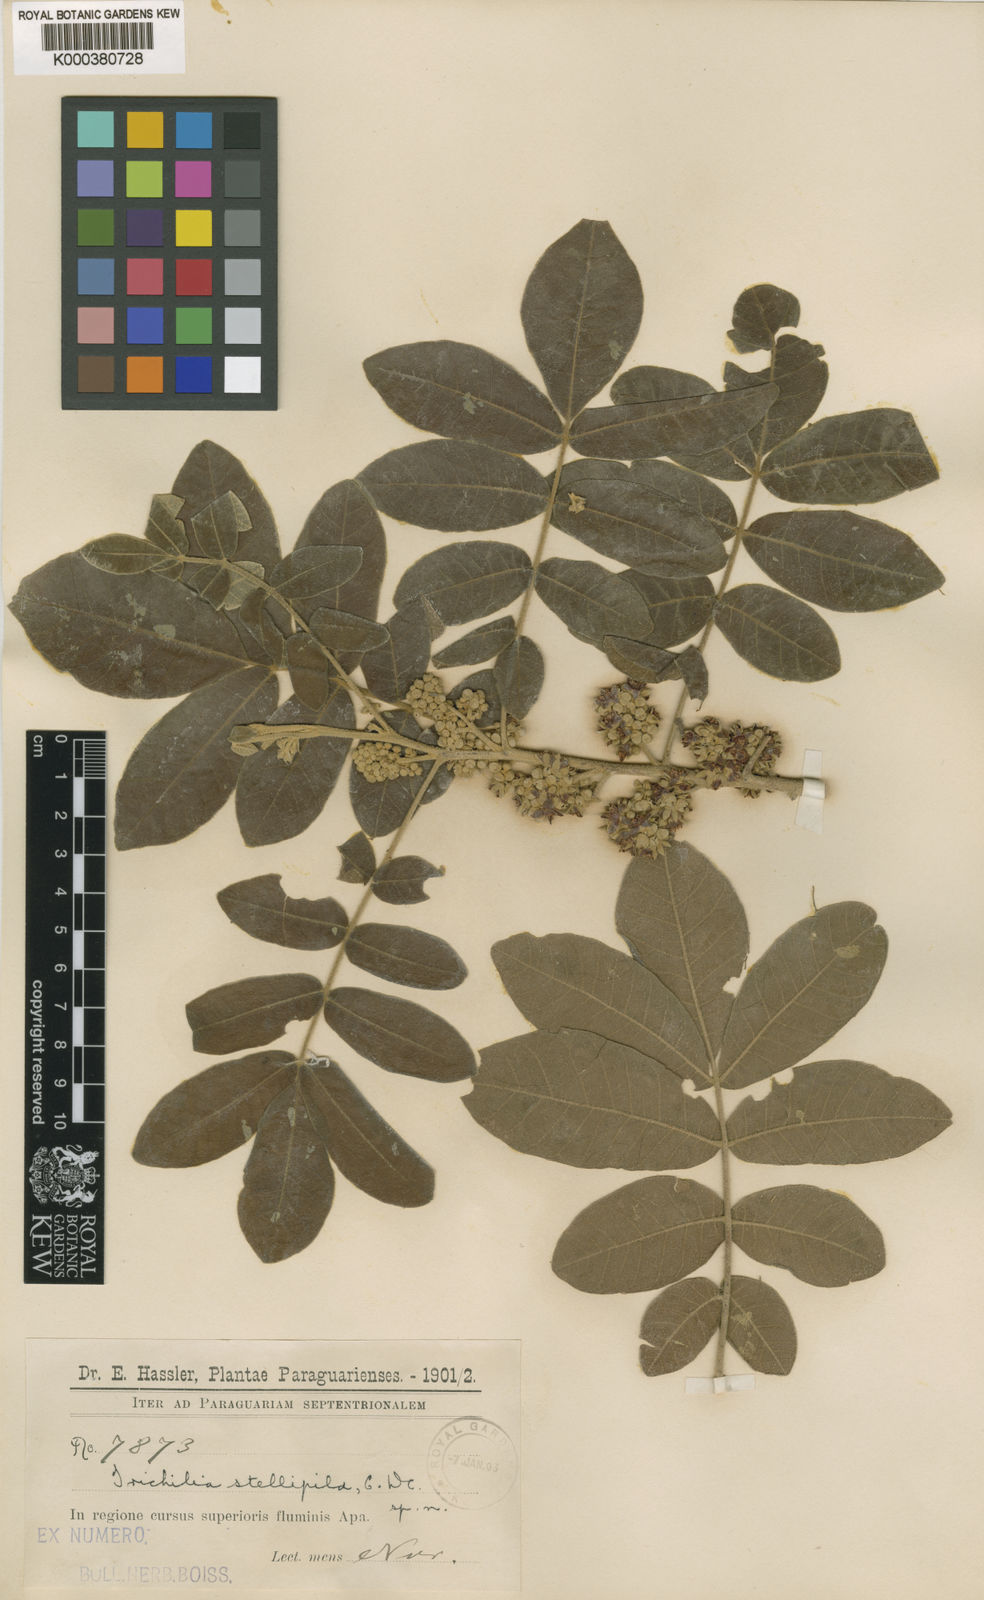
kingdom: Plantae
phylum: Tracheophyta
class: Magnoliopsida
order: Sapindales
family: Meliaceae
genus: Trichilia
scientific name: Trichilia stellatotomentosa
